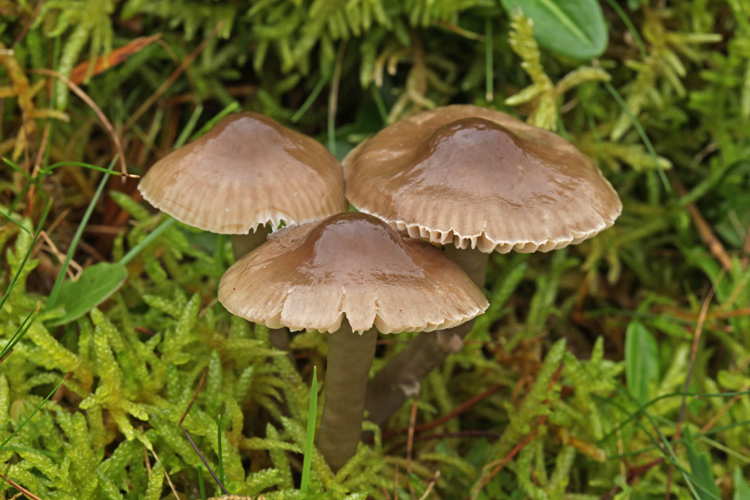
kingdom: Fungi
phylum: Basidiomycota
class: Agaricomycetes
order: Agaricales
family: Hygrophoraceae
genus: Gliophorus
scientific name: Gliophorus irrigatus
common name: slimet vokshat
